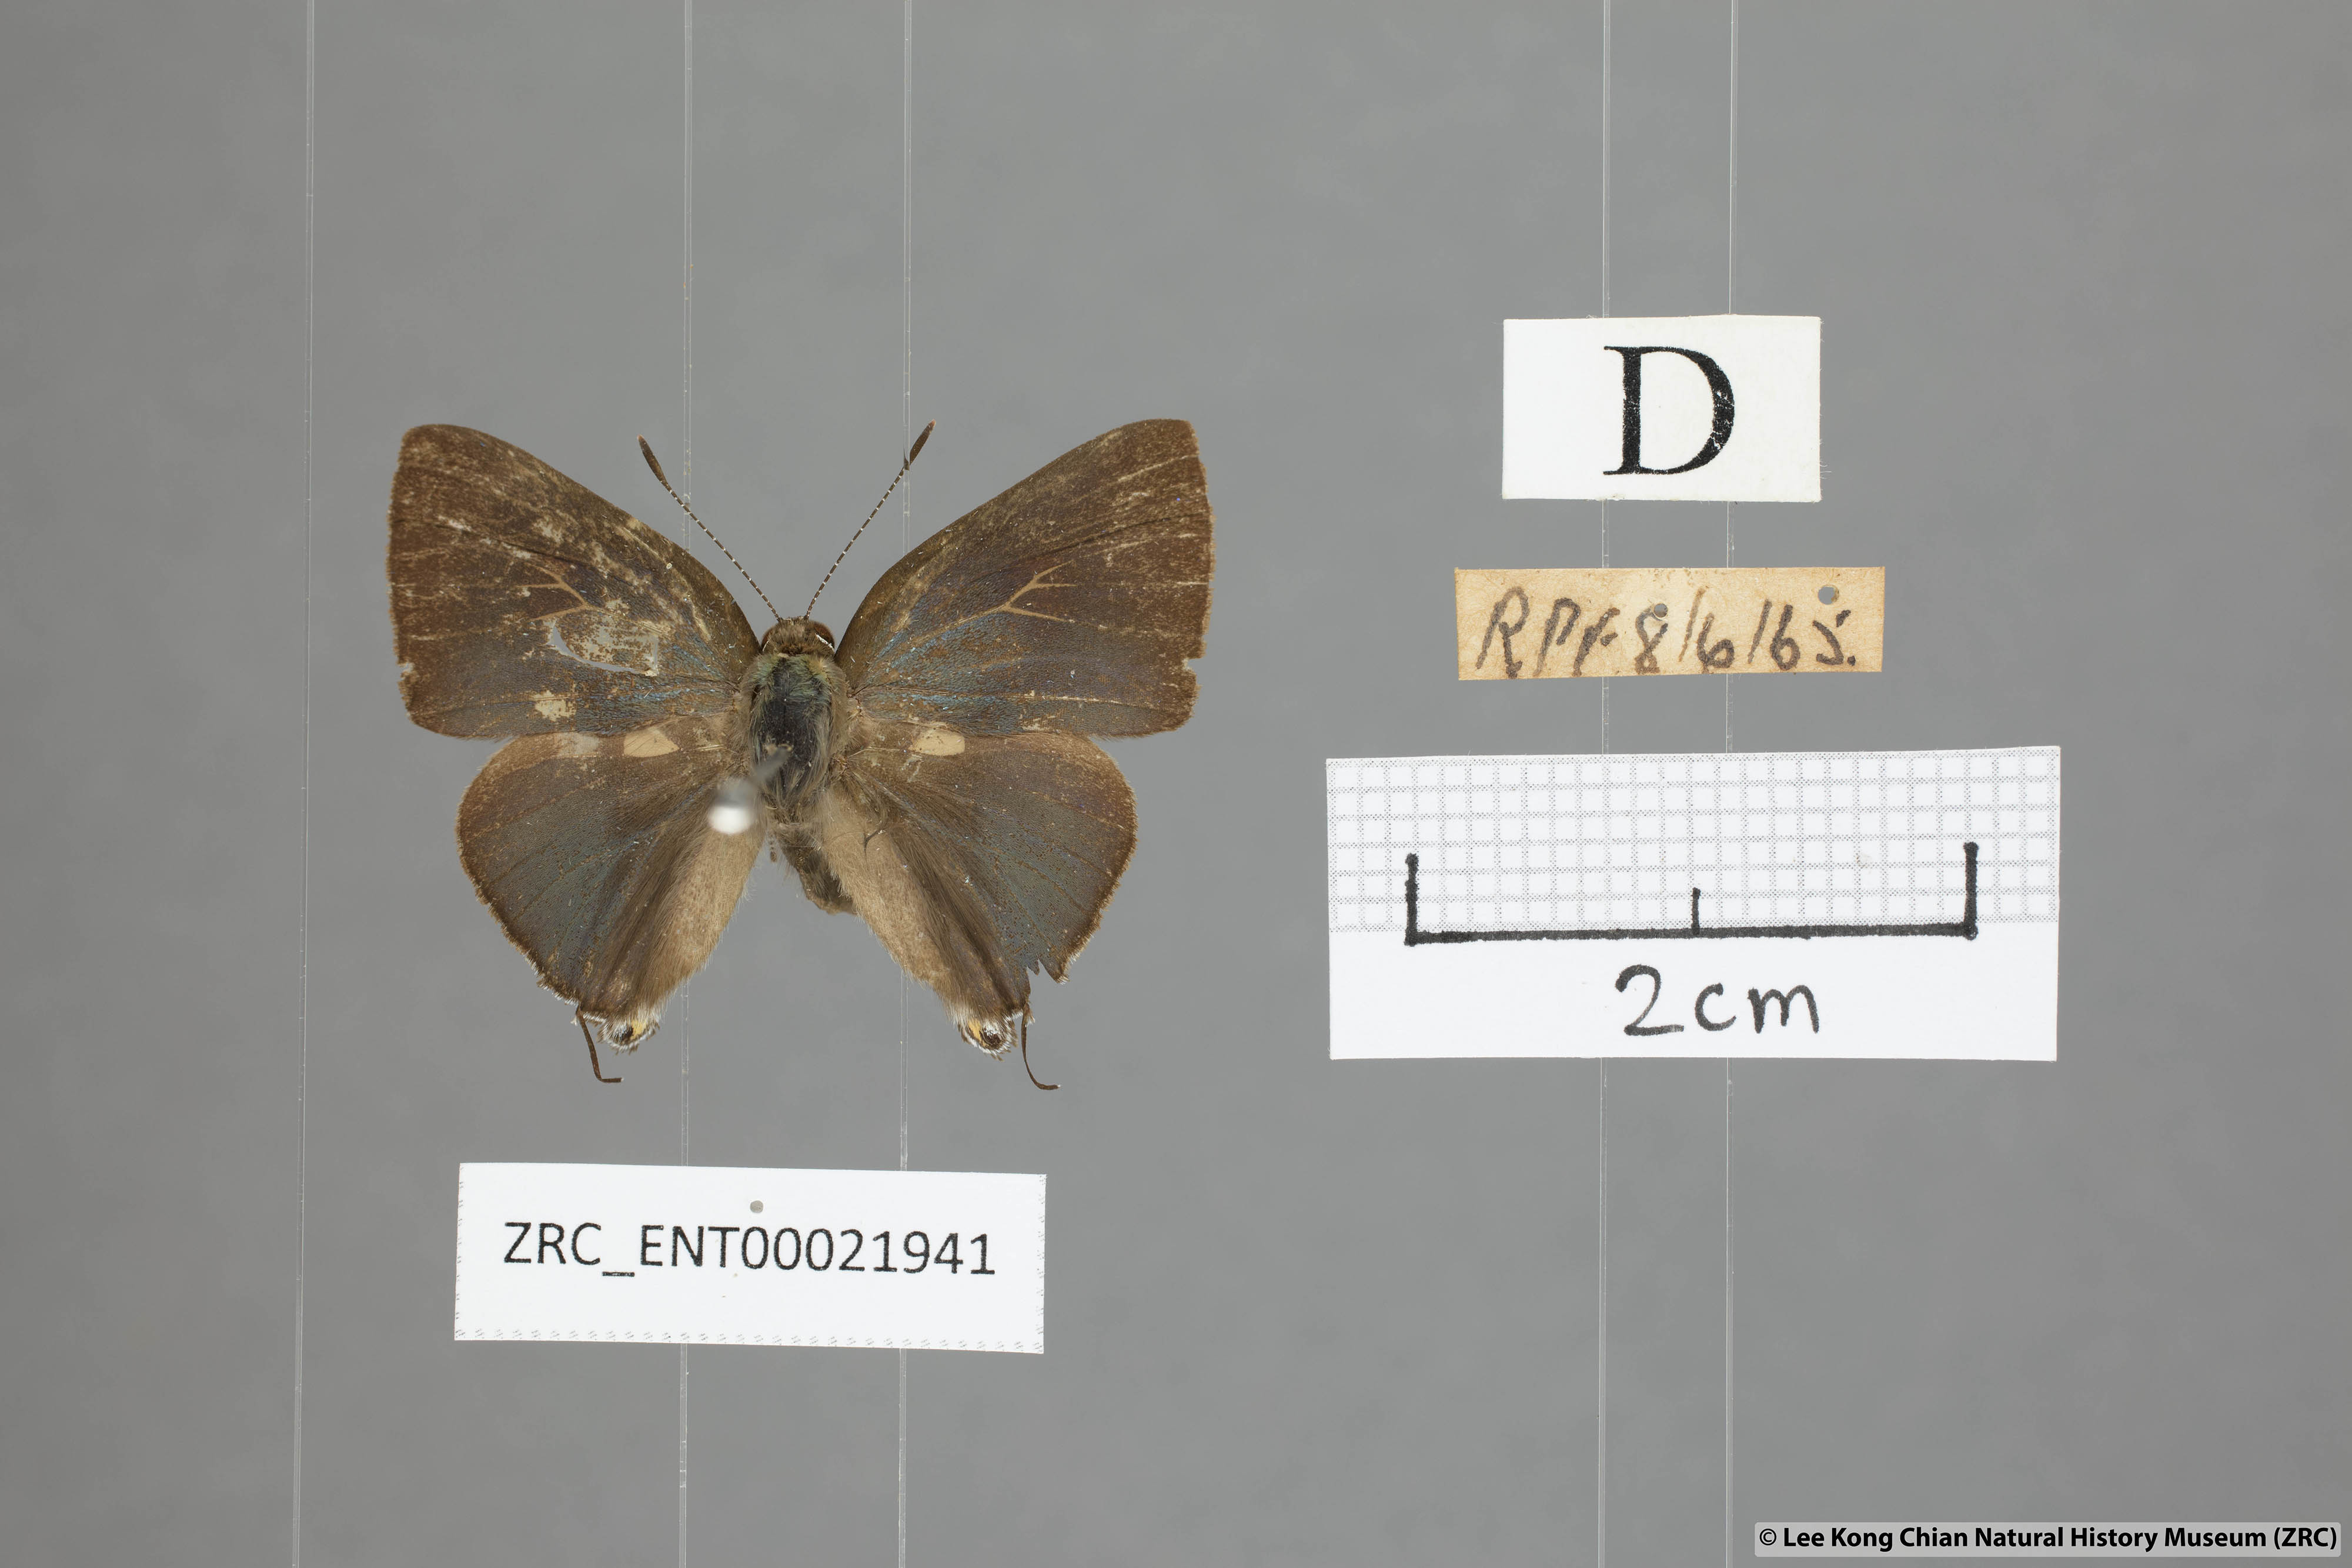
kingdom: Animalia
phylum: Arthropoda
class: Insecta
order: Lepidoptera
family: Lycaenidae
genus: Rapala
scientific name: Rapala varuna
